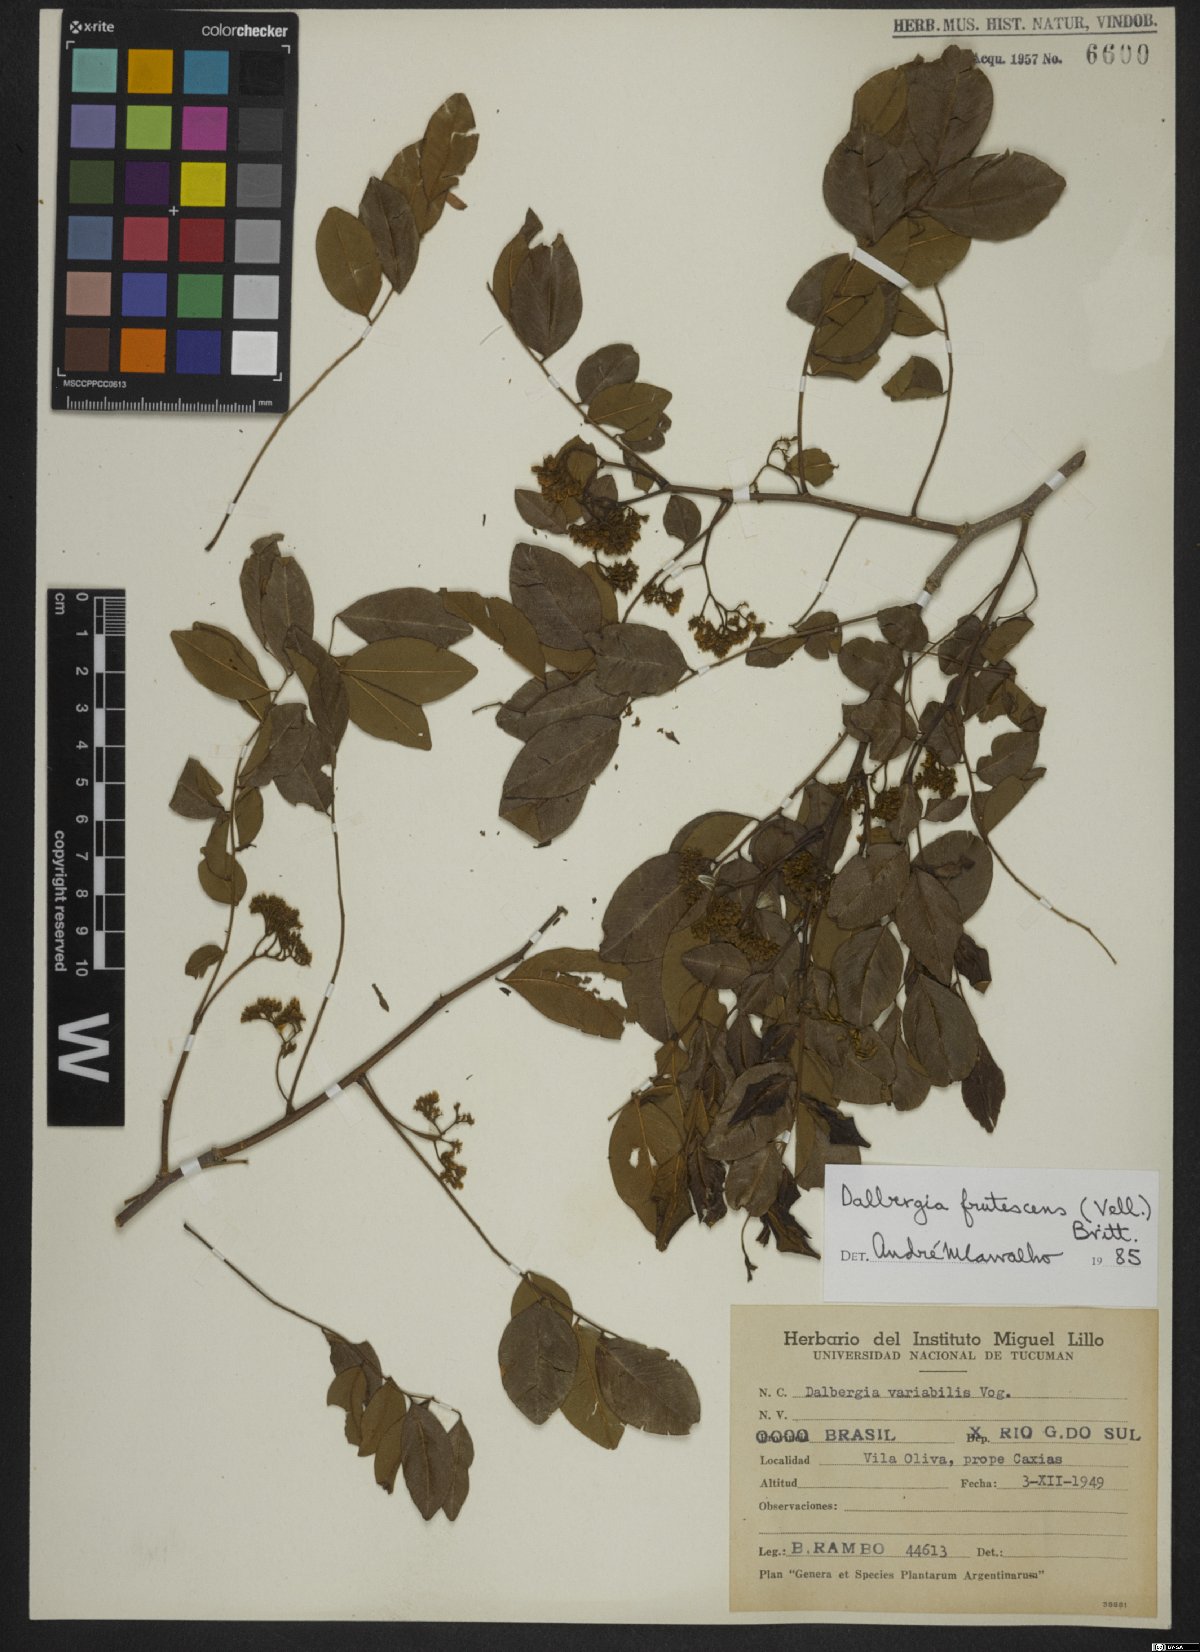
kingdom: Plantae
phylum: Tracheophyta
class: Magnoliopsida
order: Fabales
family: Fabaceae
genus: Dalbergia
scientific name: Dalbergia frutescens
